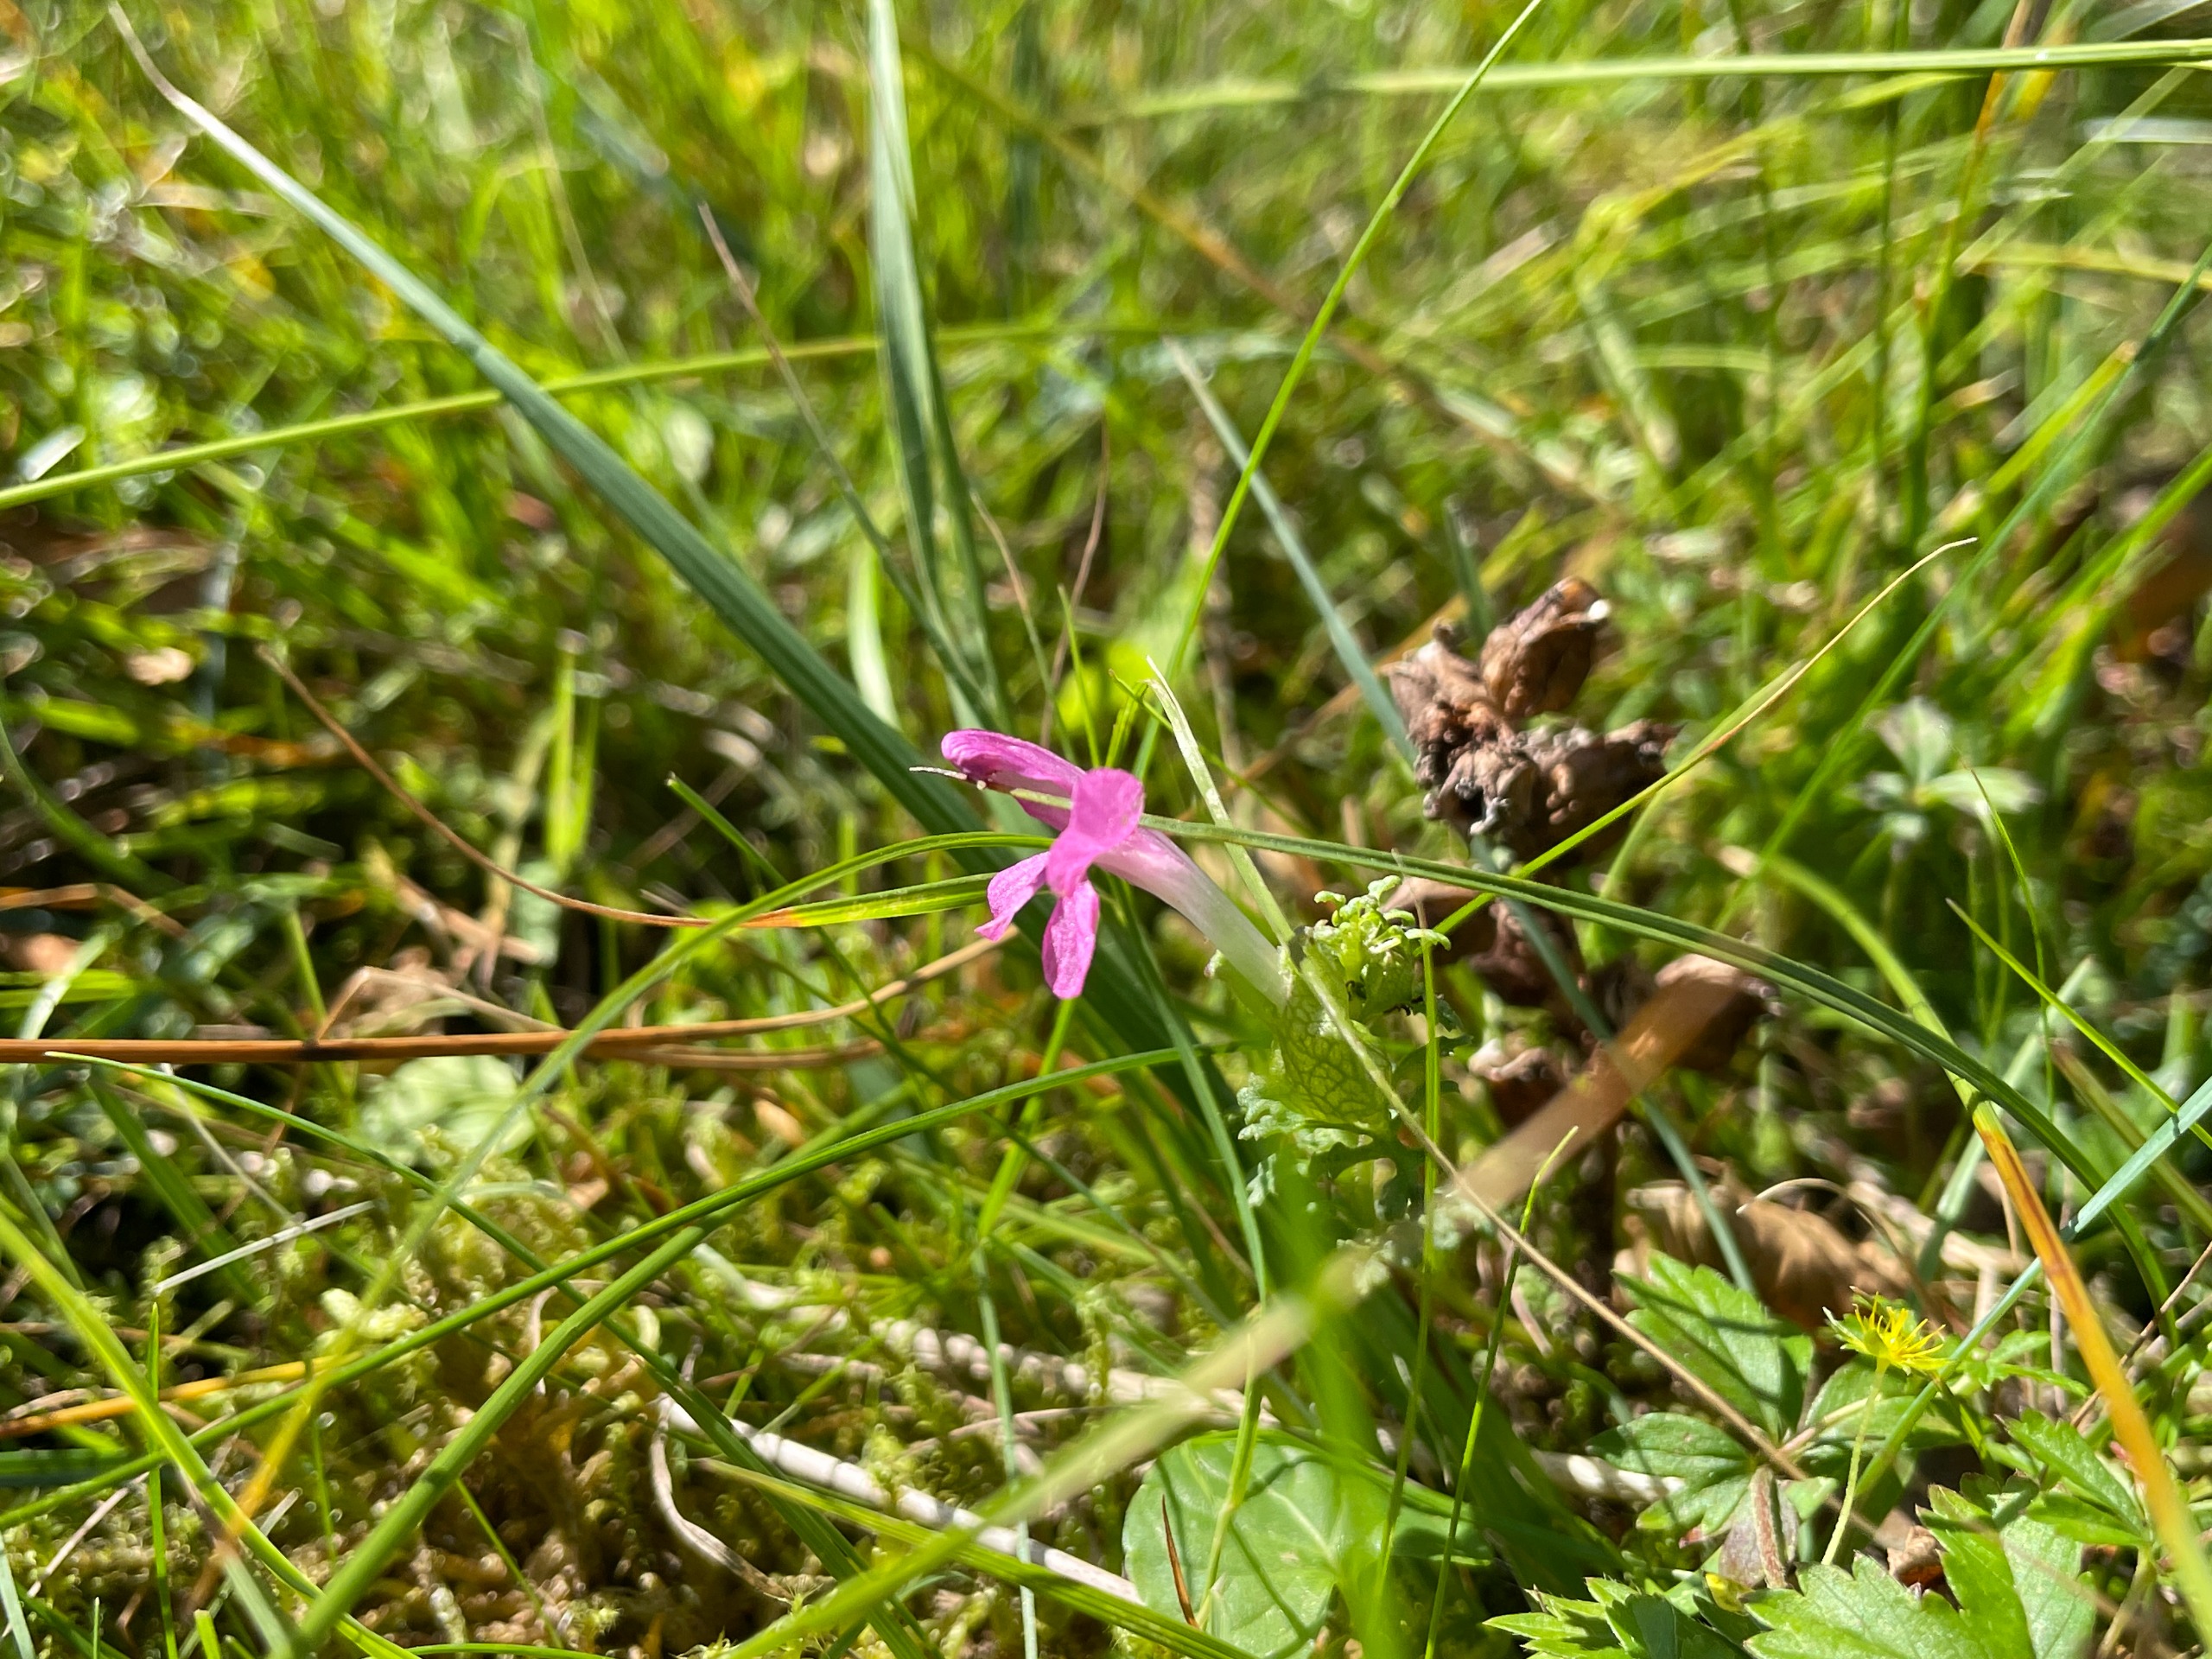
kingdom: Plantae
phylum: Tracheophyta
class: Magnoliopsida
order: Lamiales
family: Orobanchaceae
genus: Pedicularis
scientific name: Pedicularis palustris
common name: Eng-troldurt
